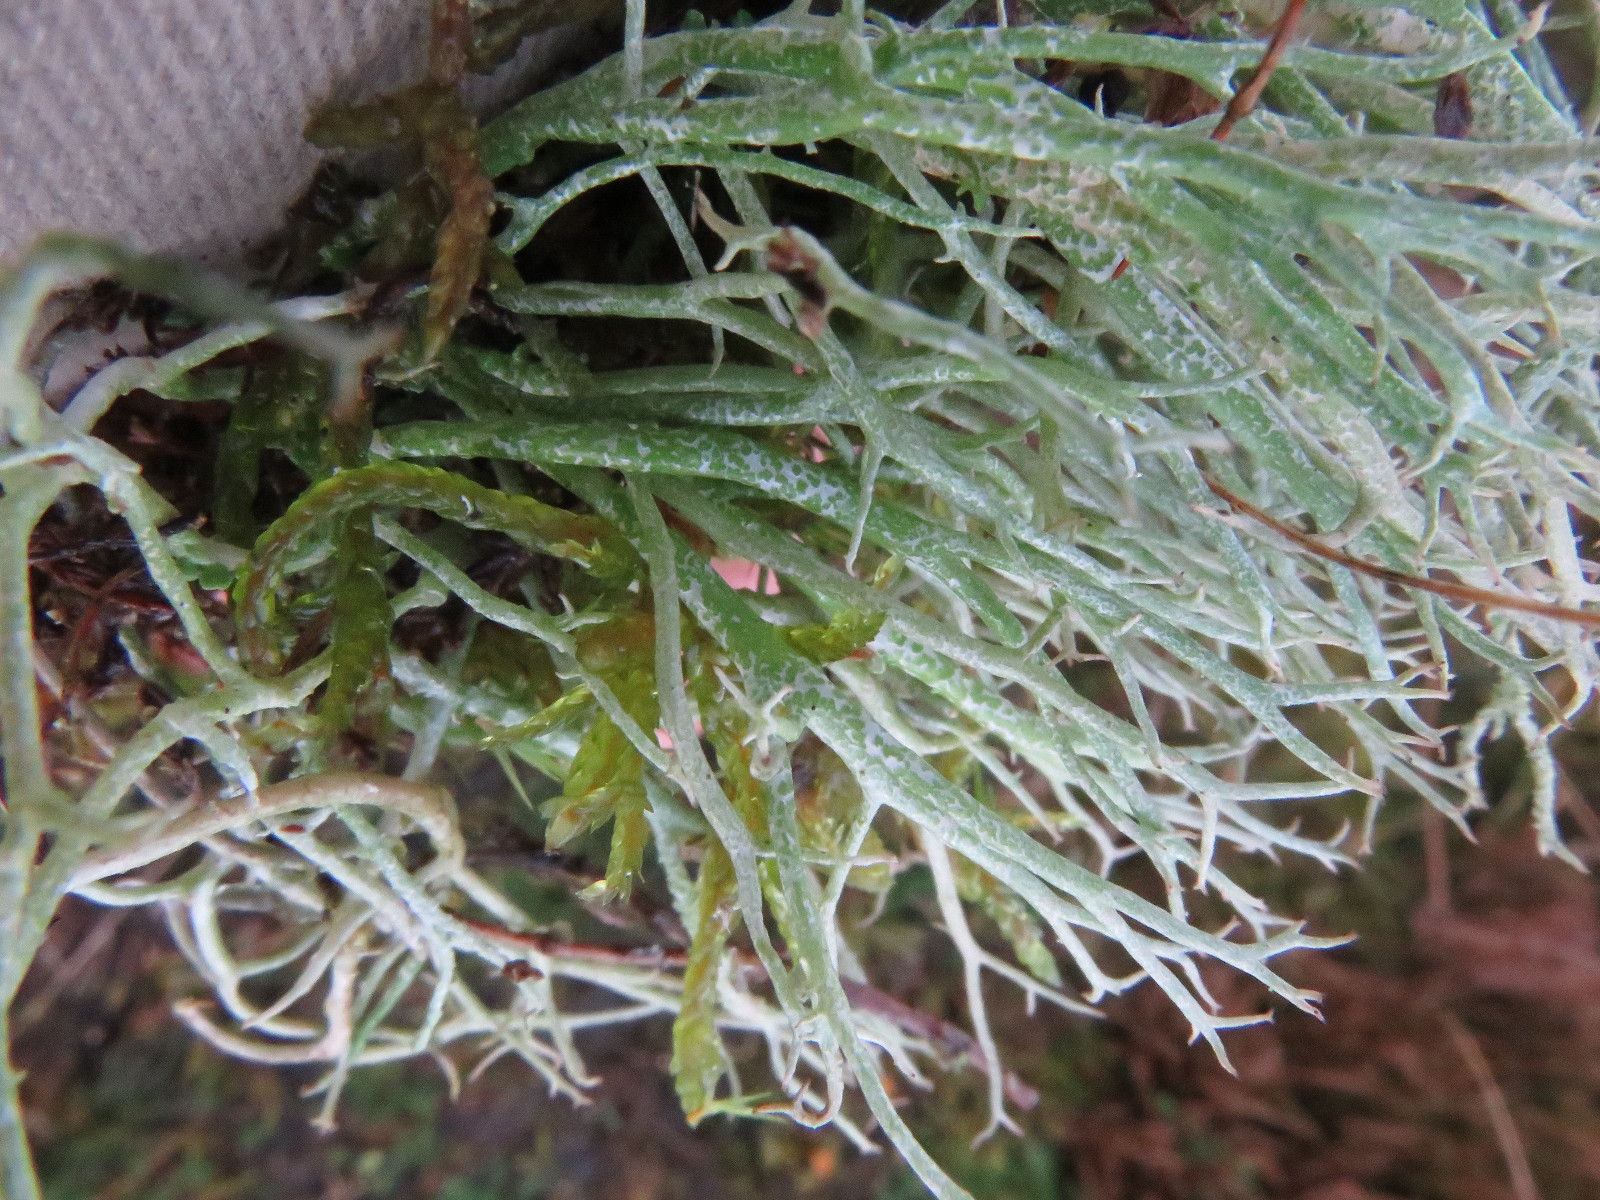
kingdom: Fungi
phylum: Ascomycota
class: Lecanoromycetes
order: Lecanorales
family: Cladoniaceae
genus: Cladonia
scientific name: Cladonia furcata
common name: kløftet bægerlav
